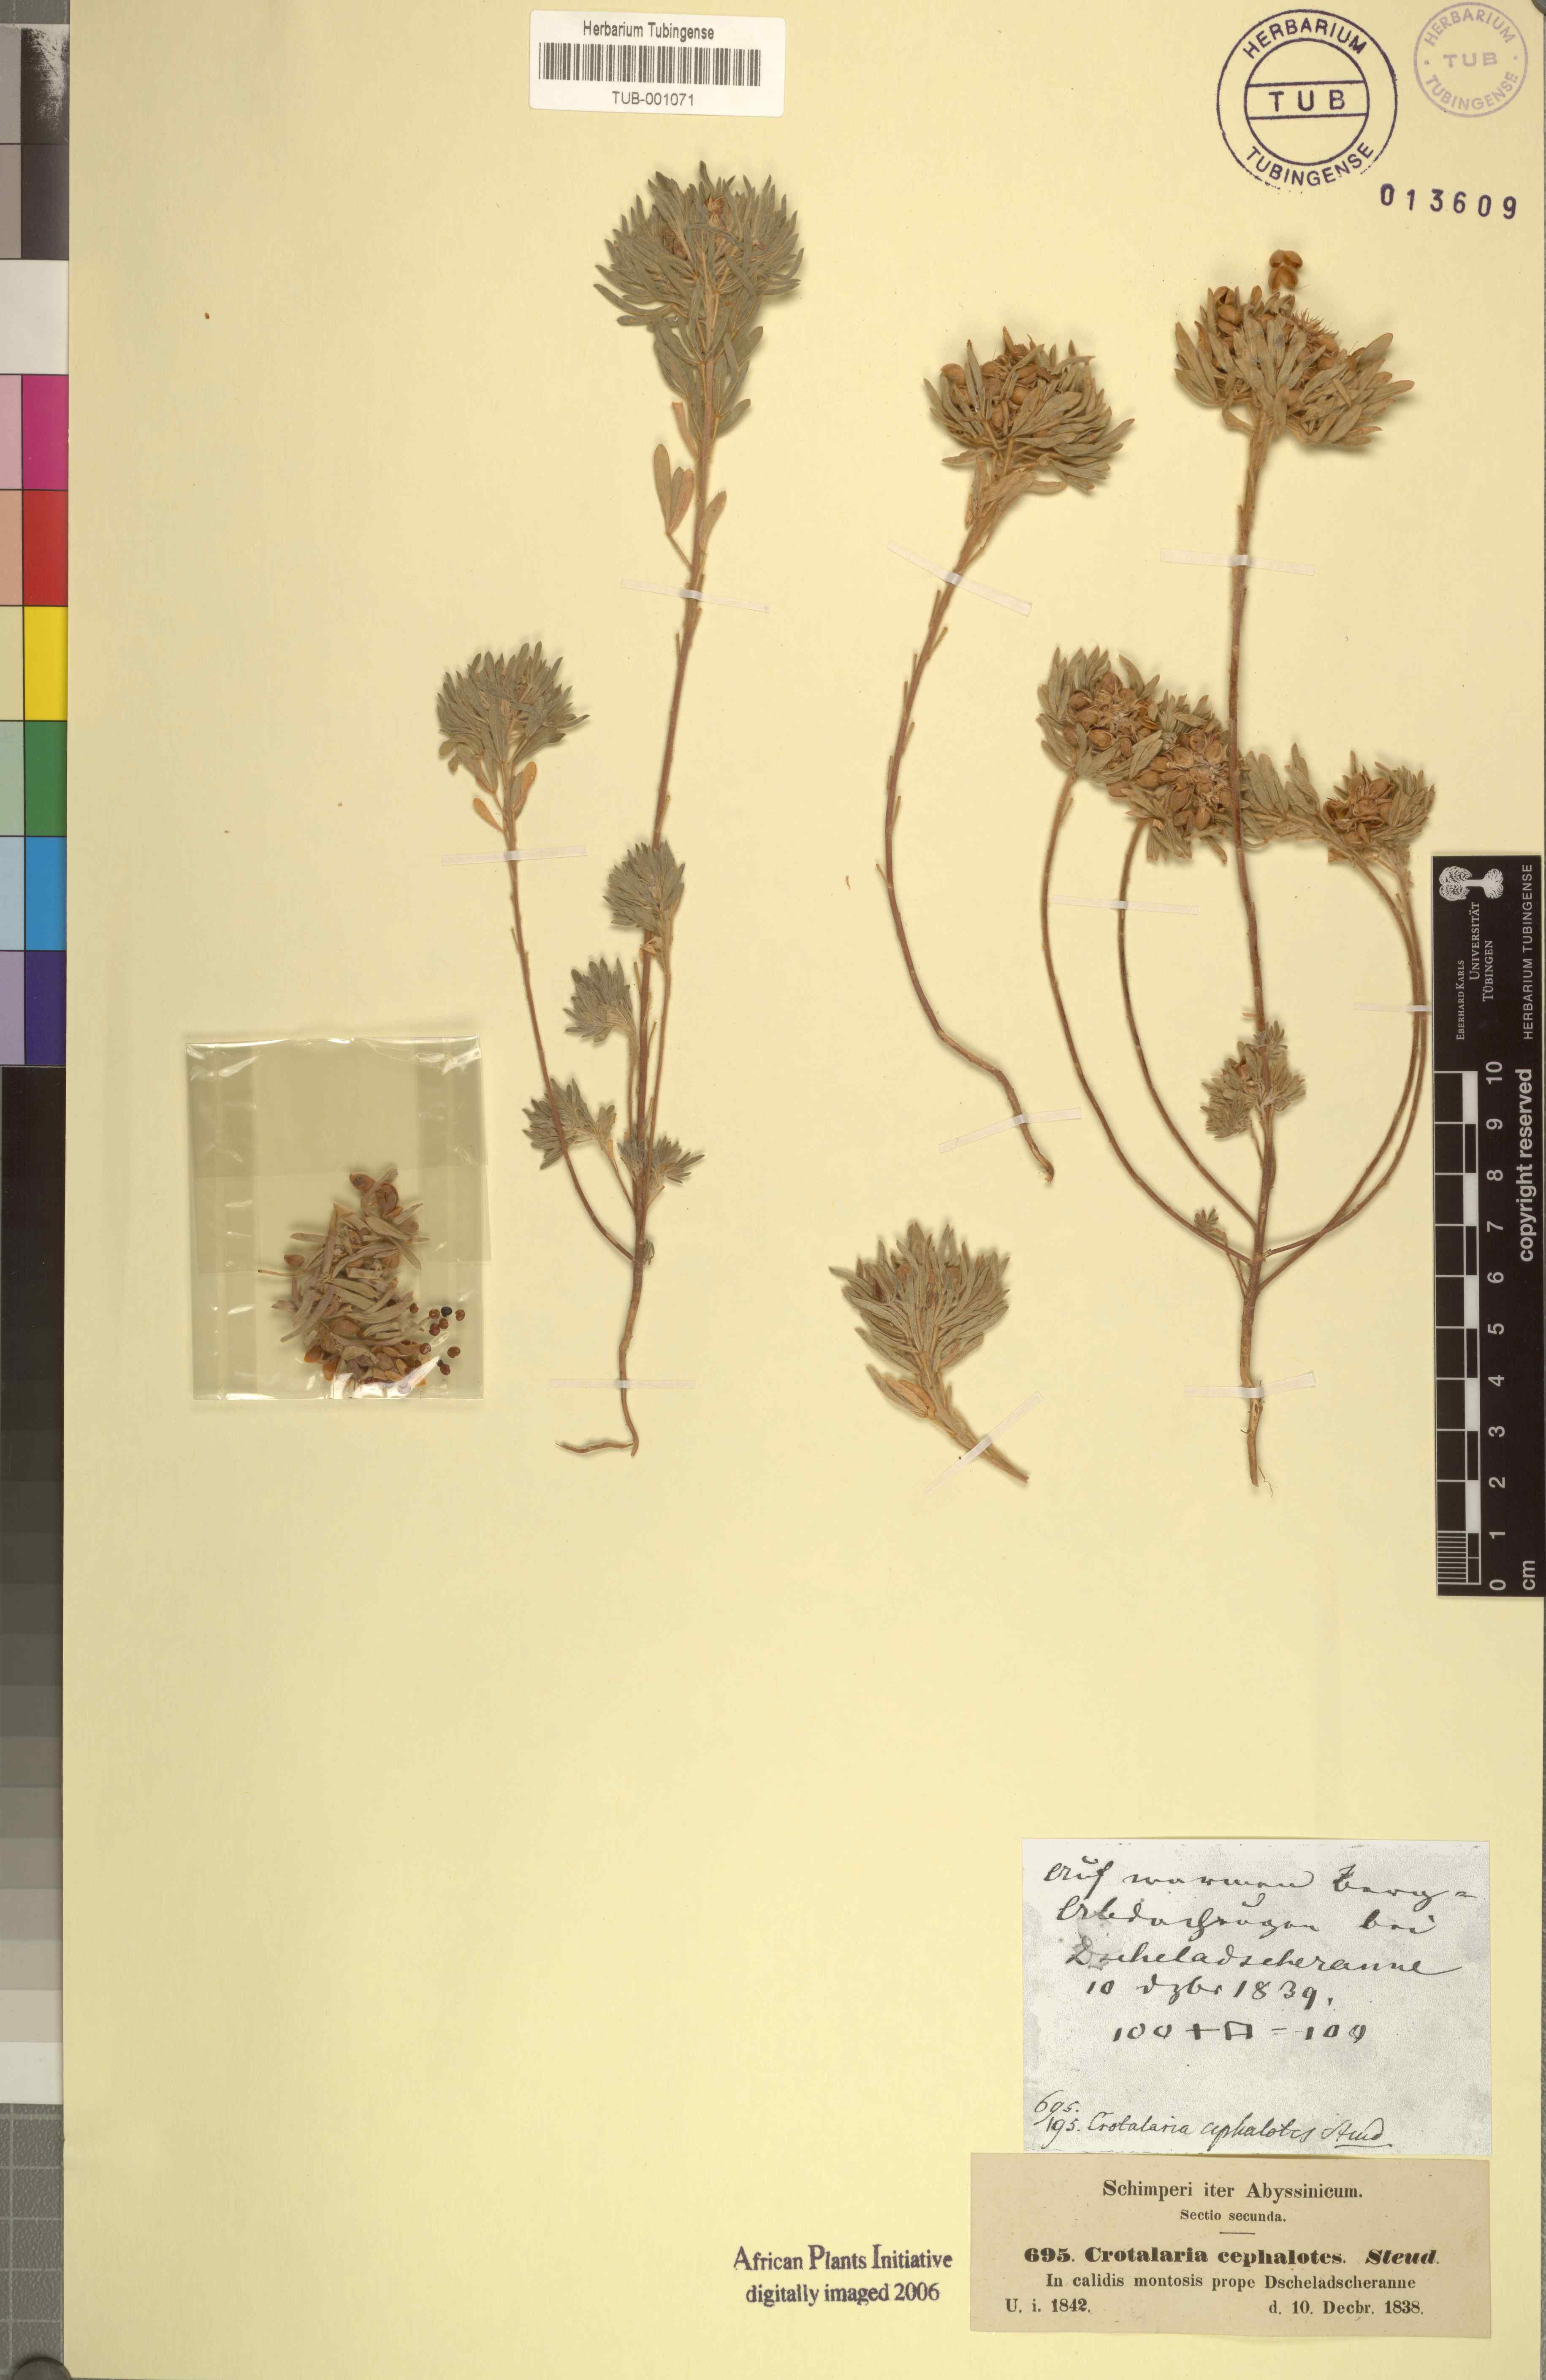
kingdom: Plantae
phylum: Tracheophyta
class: Magnoliopsida
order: Fabales
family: Fabaceae
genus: Crotalaria
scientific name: Crotalaria cephalotes
